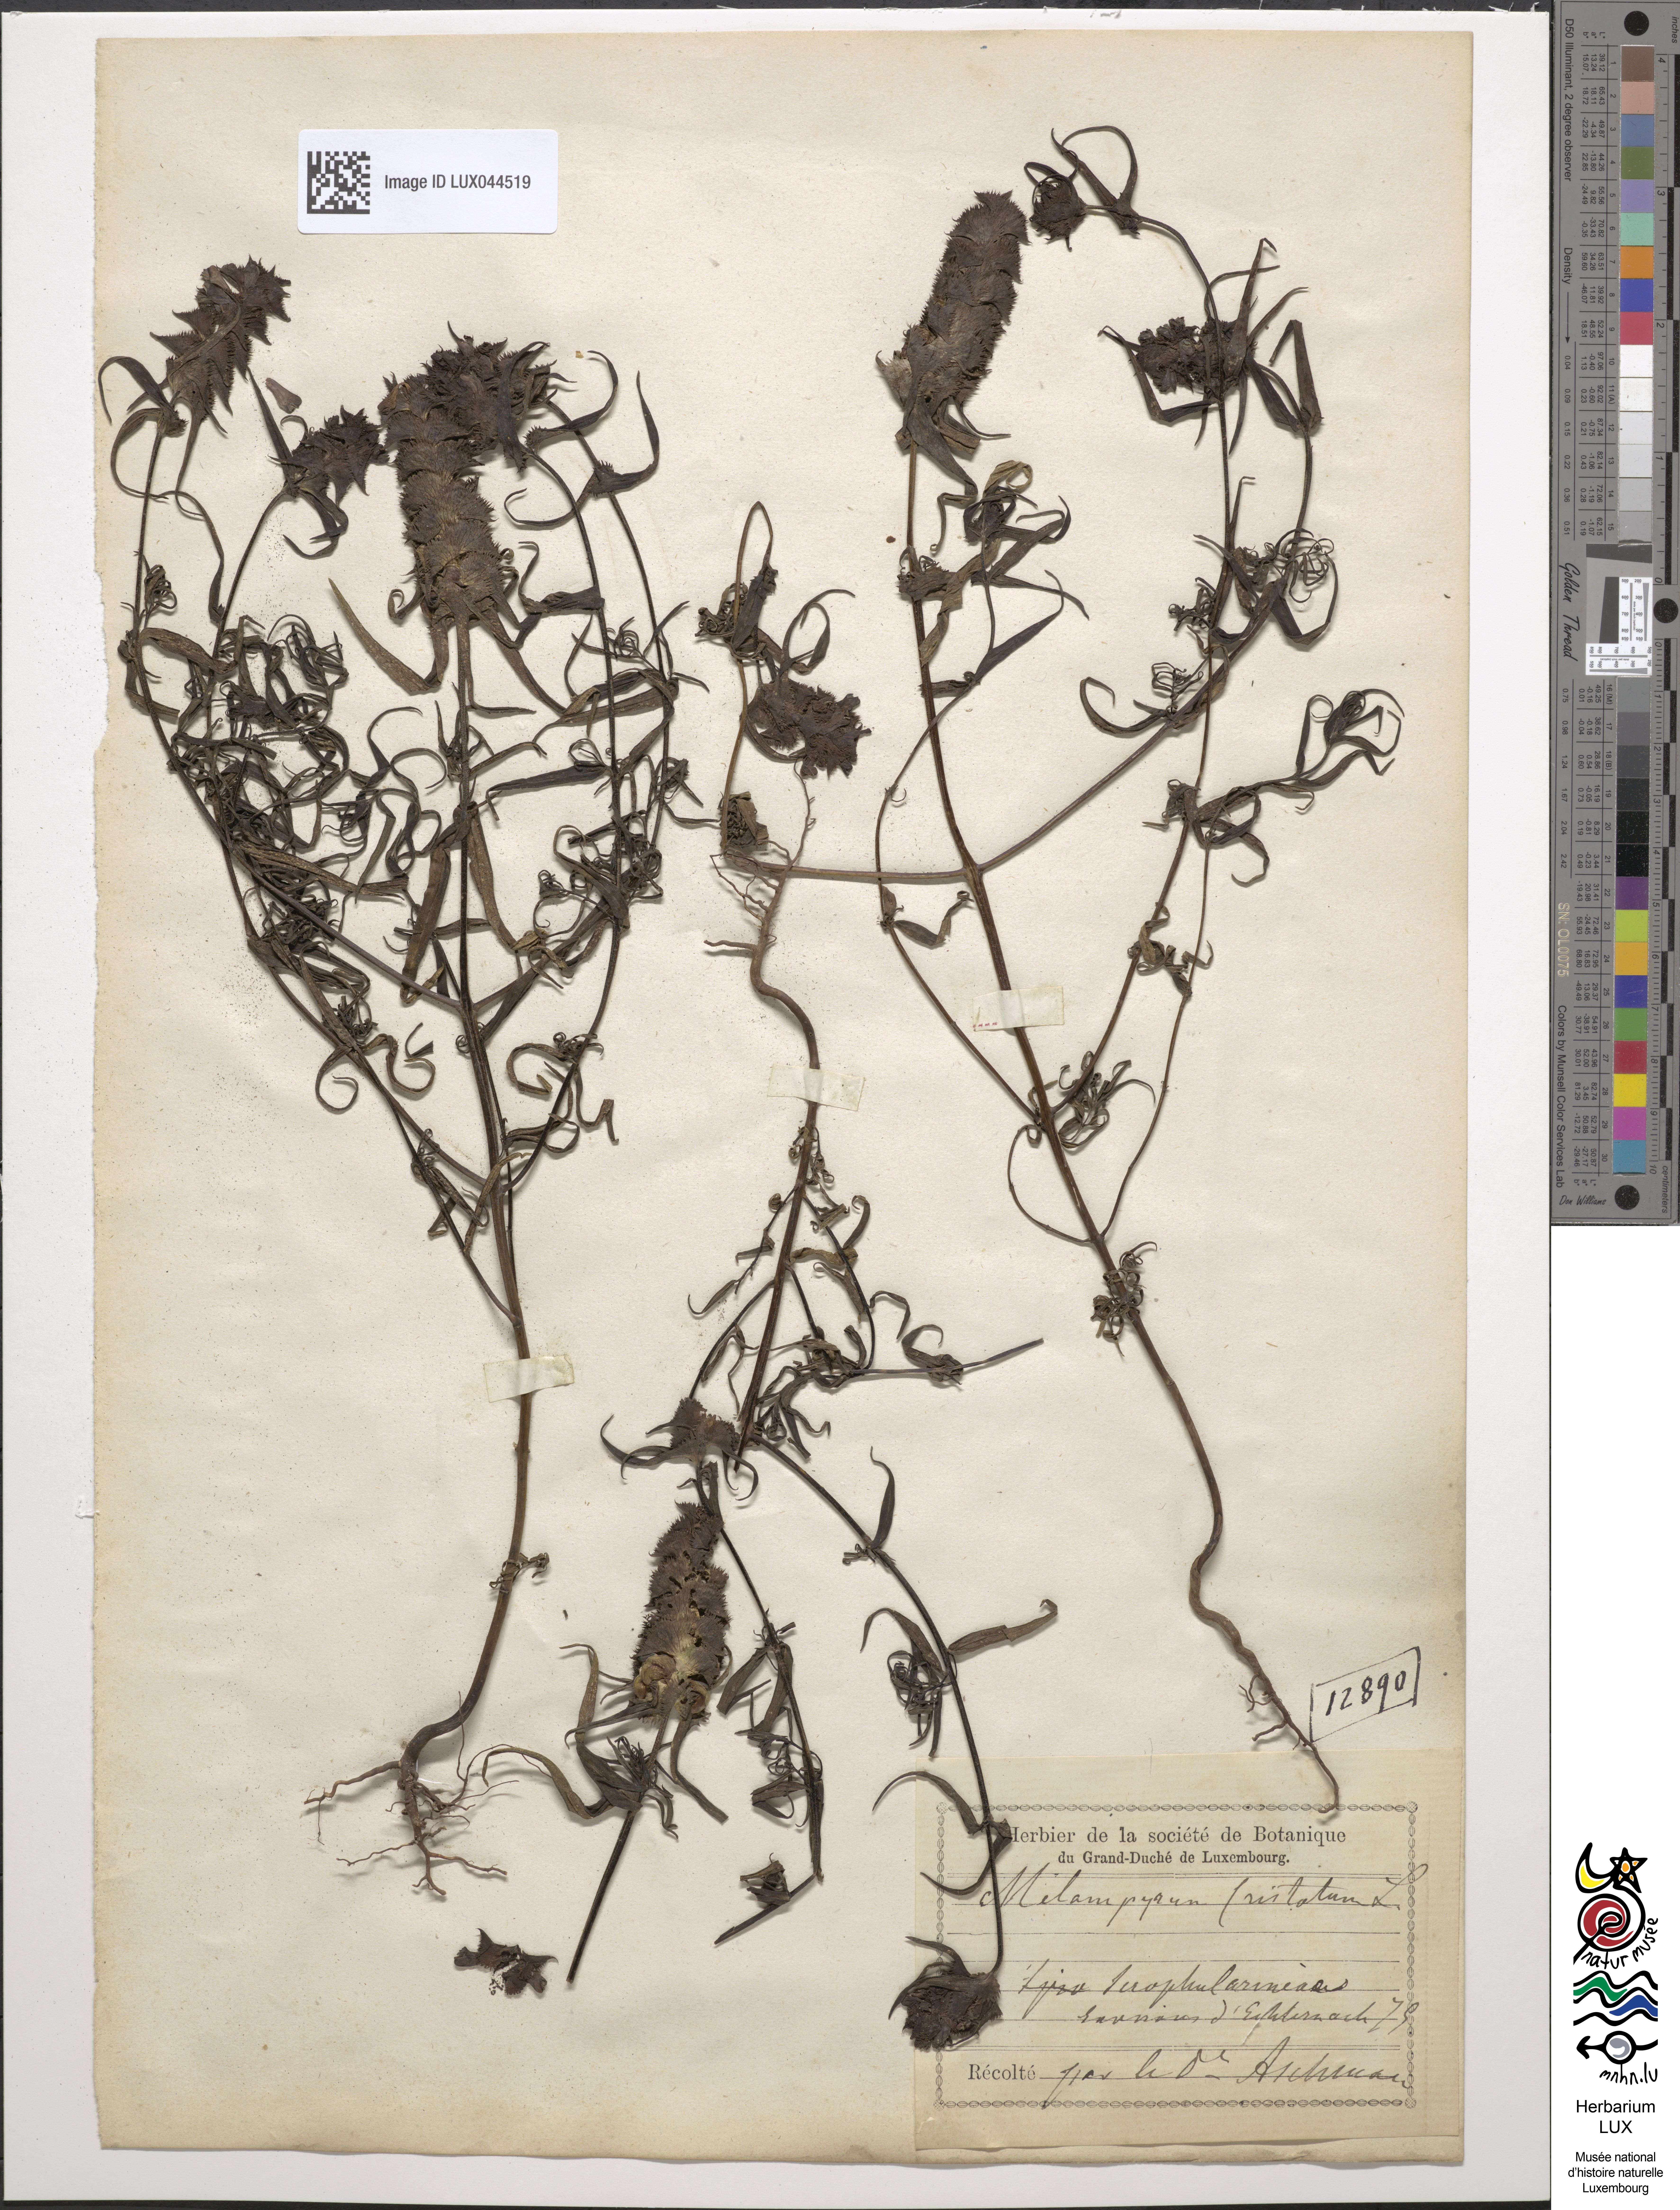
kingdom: Plantae
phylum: Tracheophyta
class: Magnoliopsida
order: Lamiales
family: Orobanchaceae
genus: Melampyrum
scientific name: Melampyrum cristatum
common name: Crested cow-wheat
